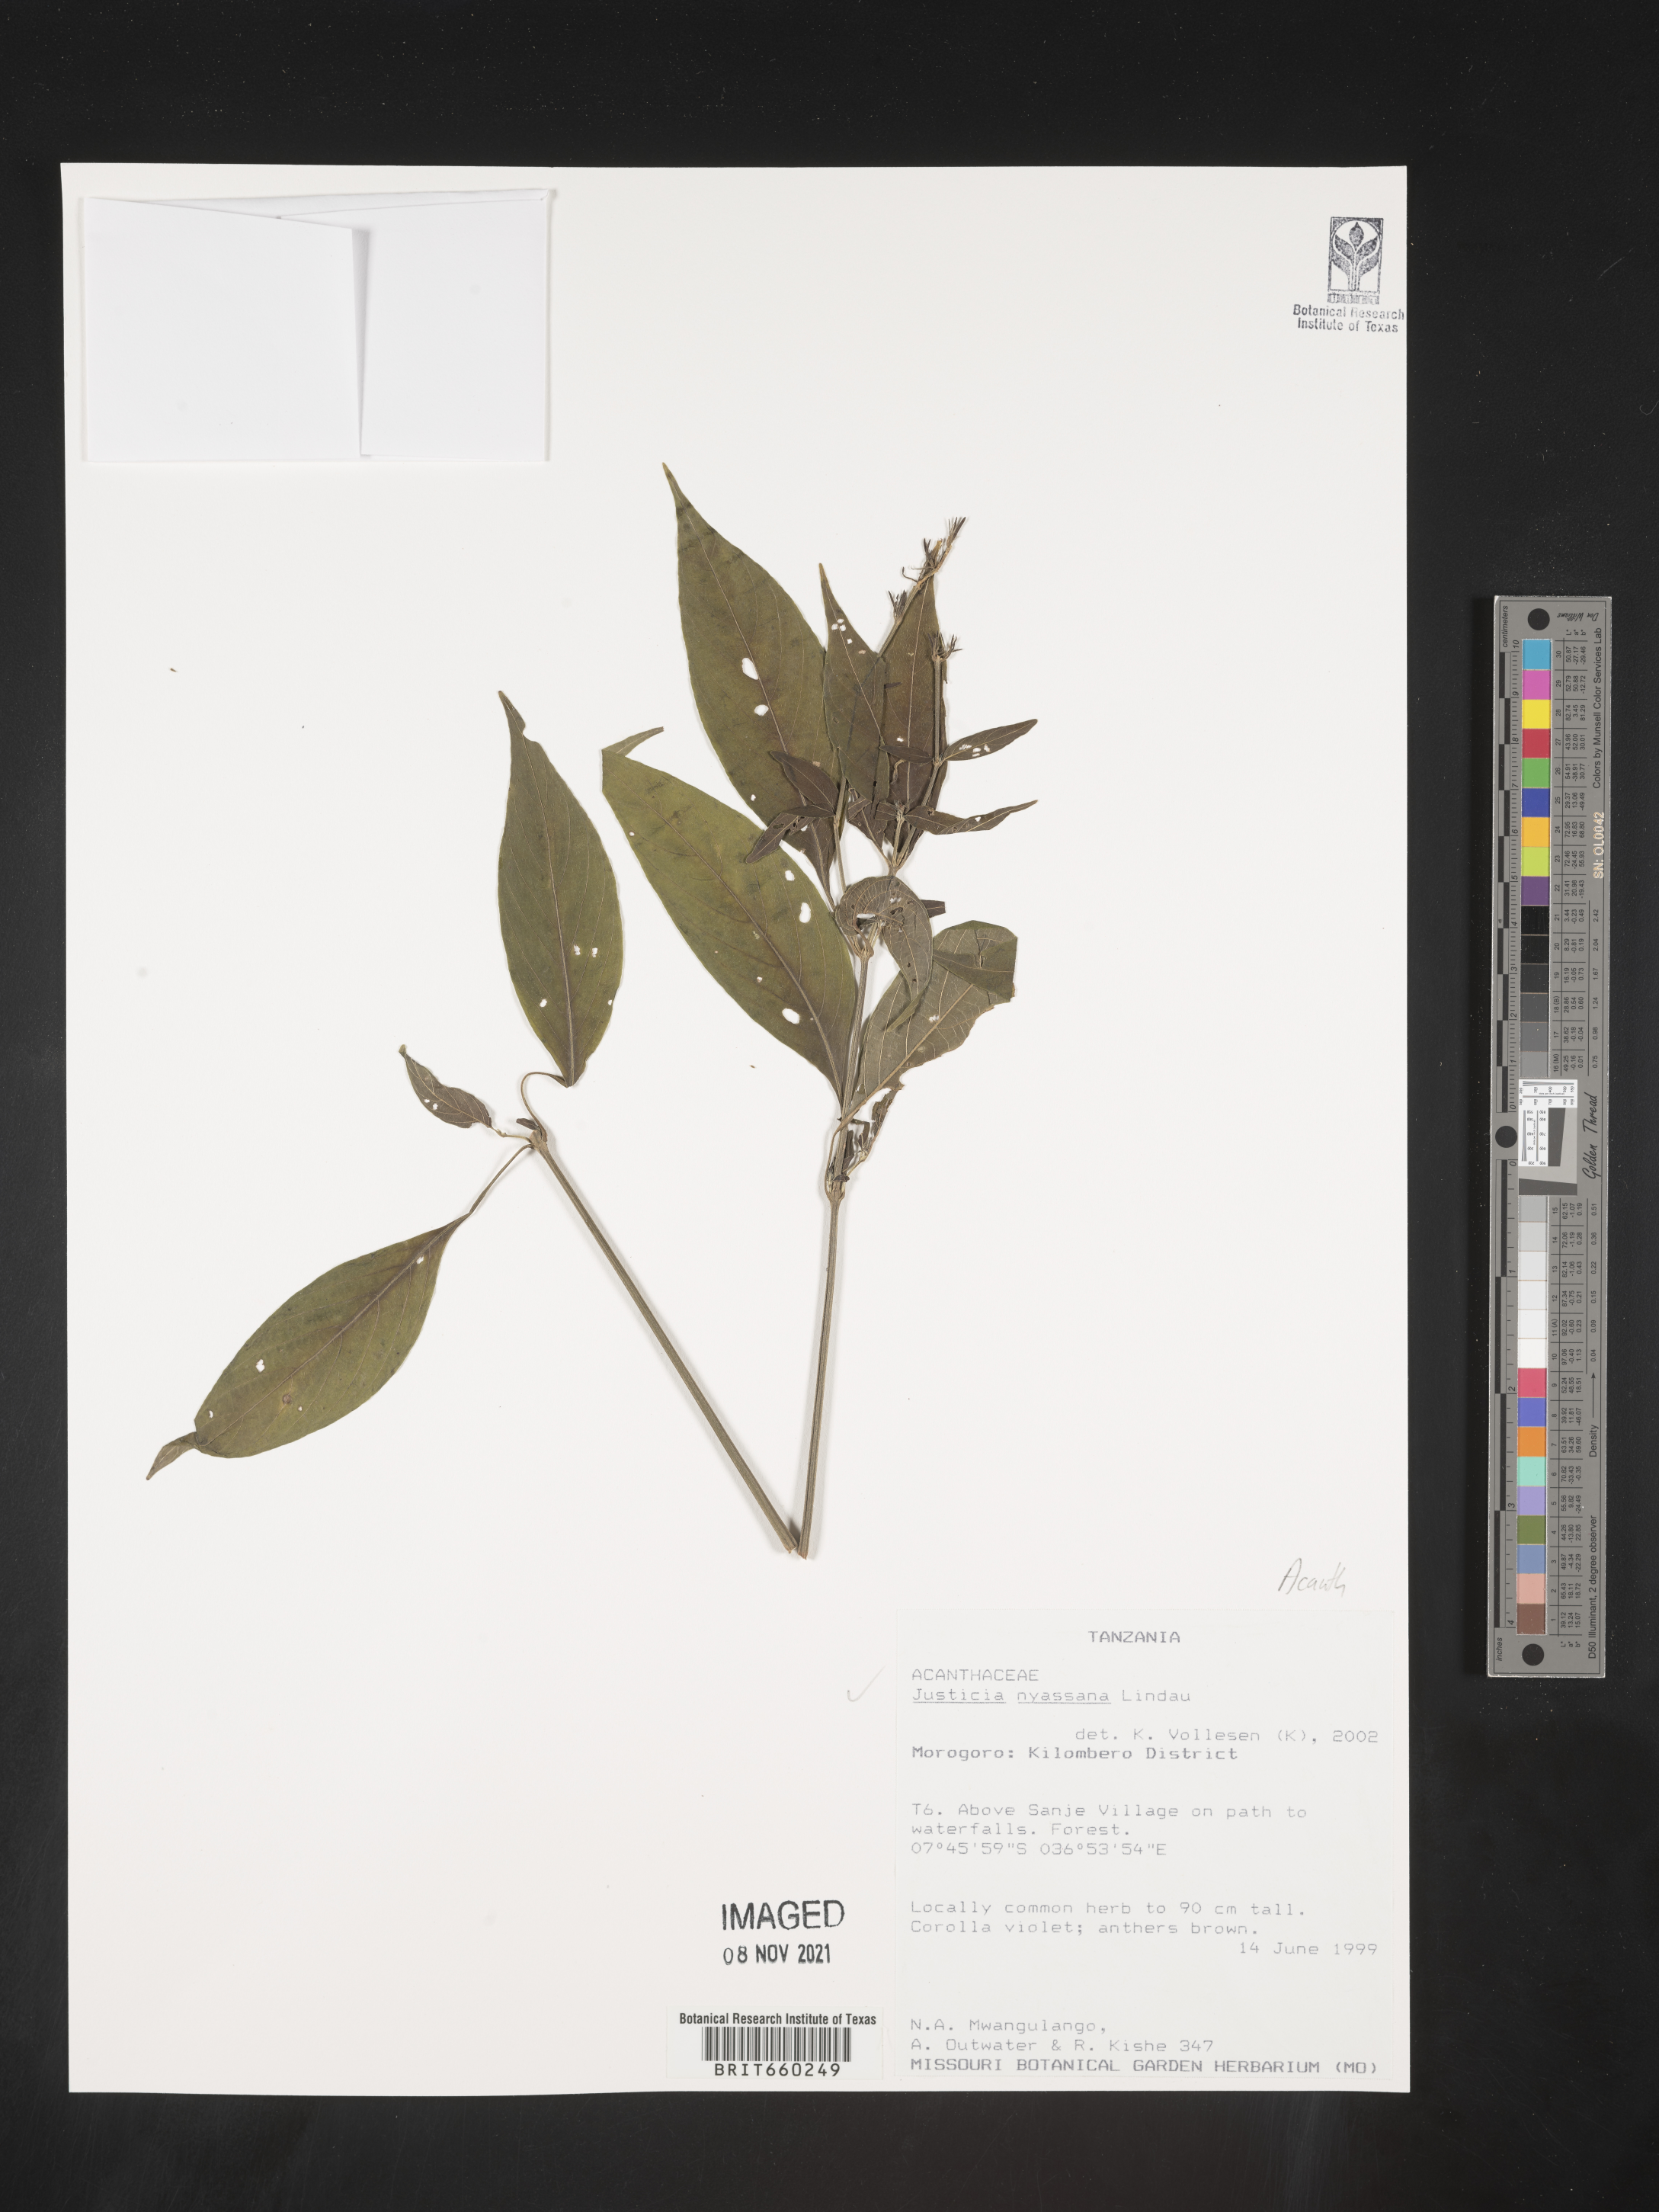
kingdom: Plantae
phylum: Tracheophyta
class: Magnoliopsida
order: Lamiales
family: Acanthaceae
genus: Justicia
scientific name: Justicia nyassana
